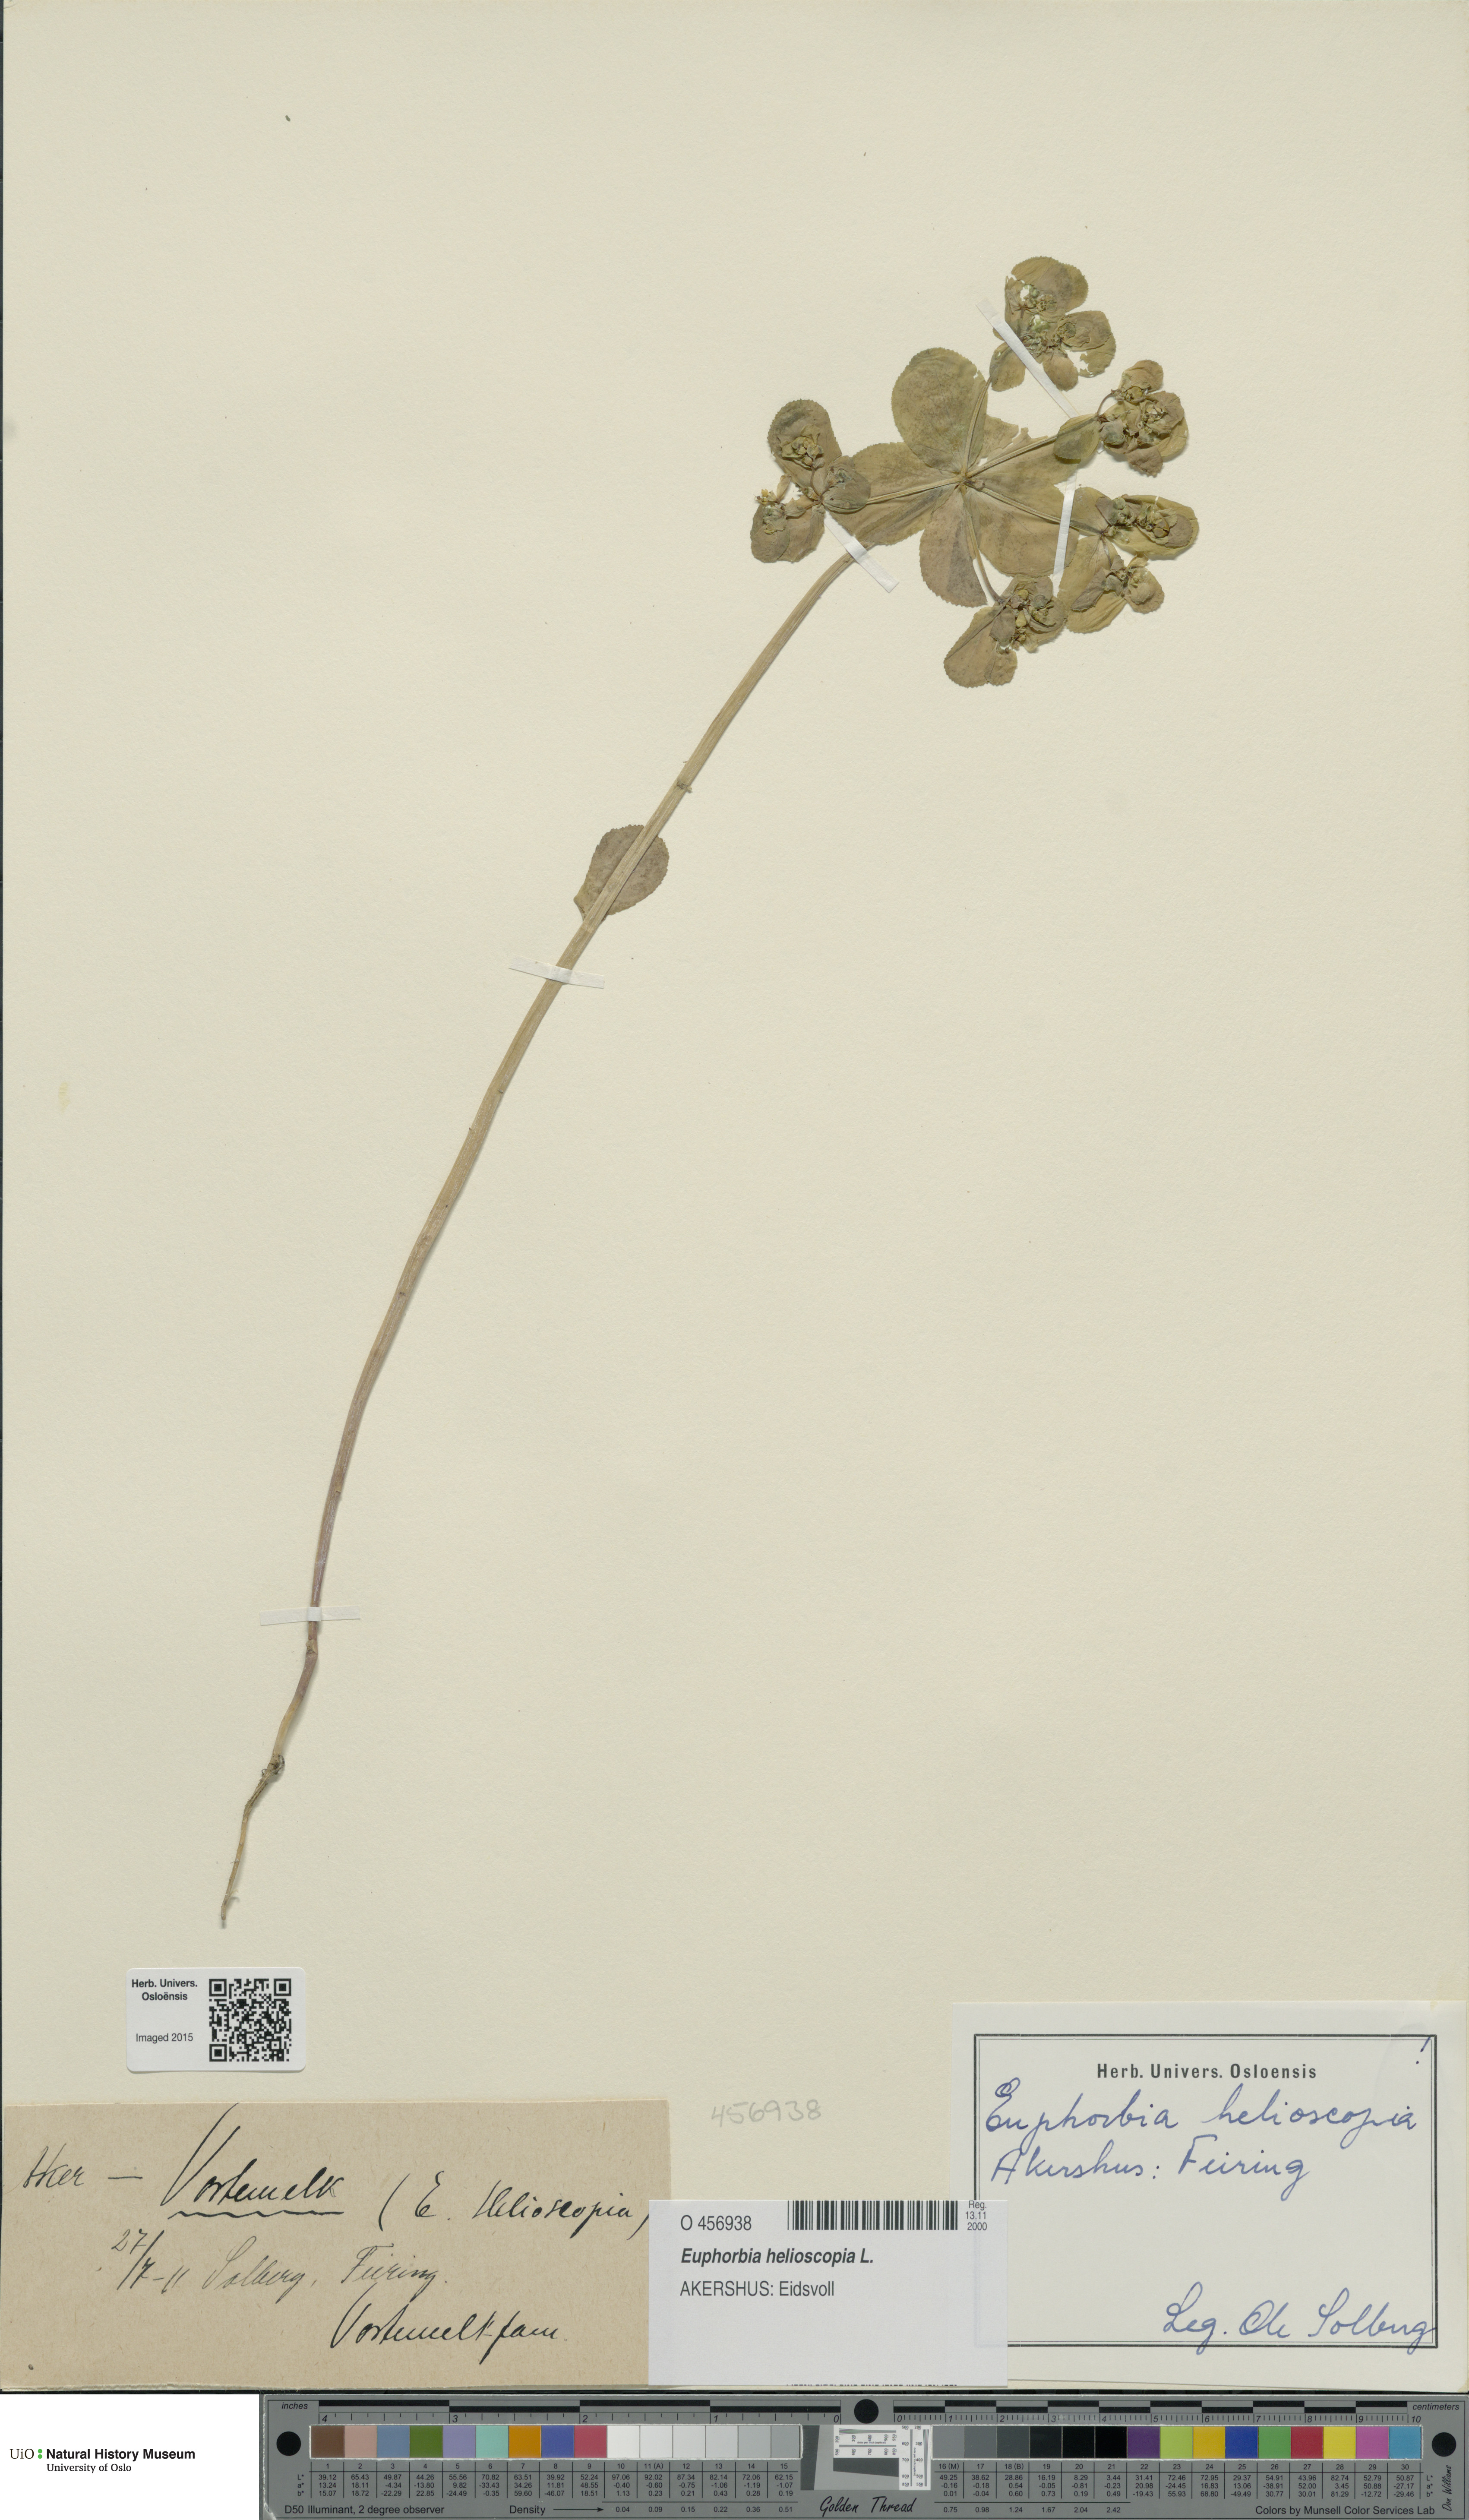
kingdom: Plantae
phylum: Tracheophyta
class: Magnoliopsida
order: Malpighiales
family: Euphorbiaceae
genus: Euphorbia
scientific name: Euphorbia helioscopia
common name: Sun spurge
